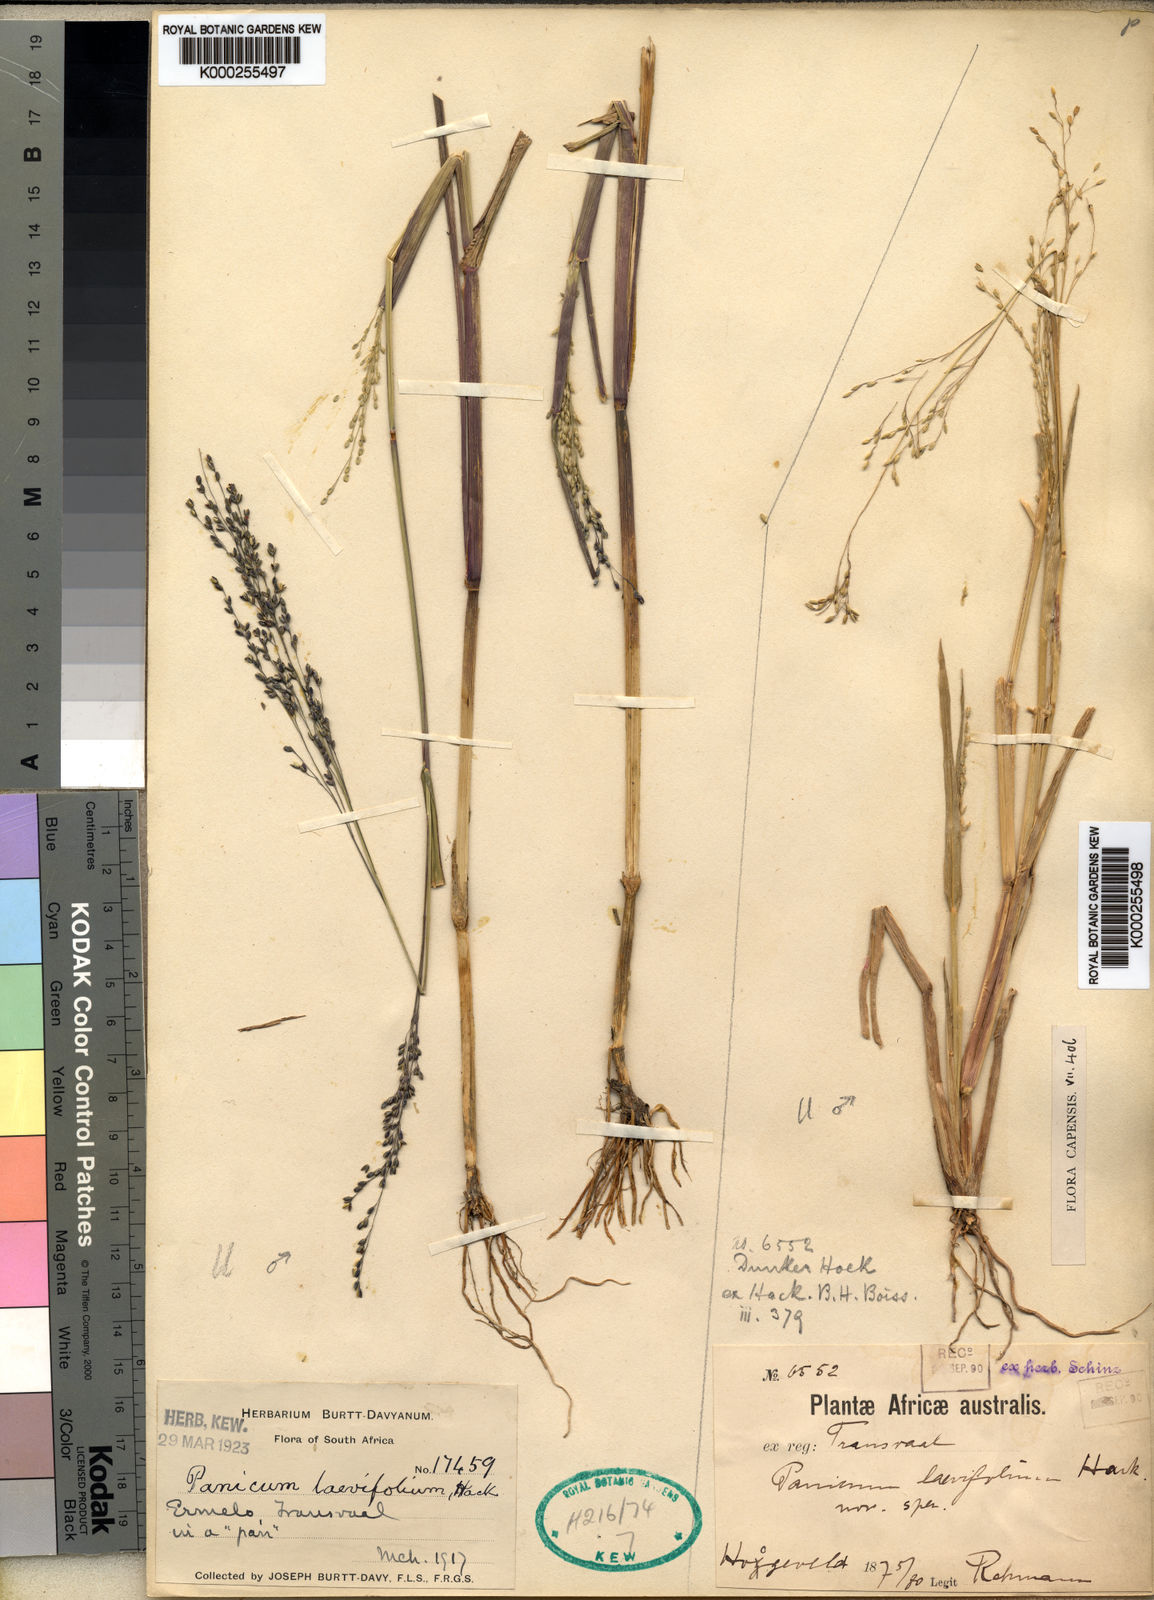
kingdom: Plantae
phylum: Tracheophyta
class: Liliopsida
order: Poales
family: Poaceae
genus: Panicum
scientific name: Panicum
